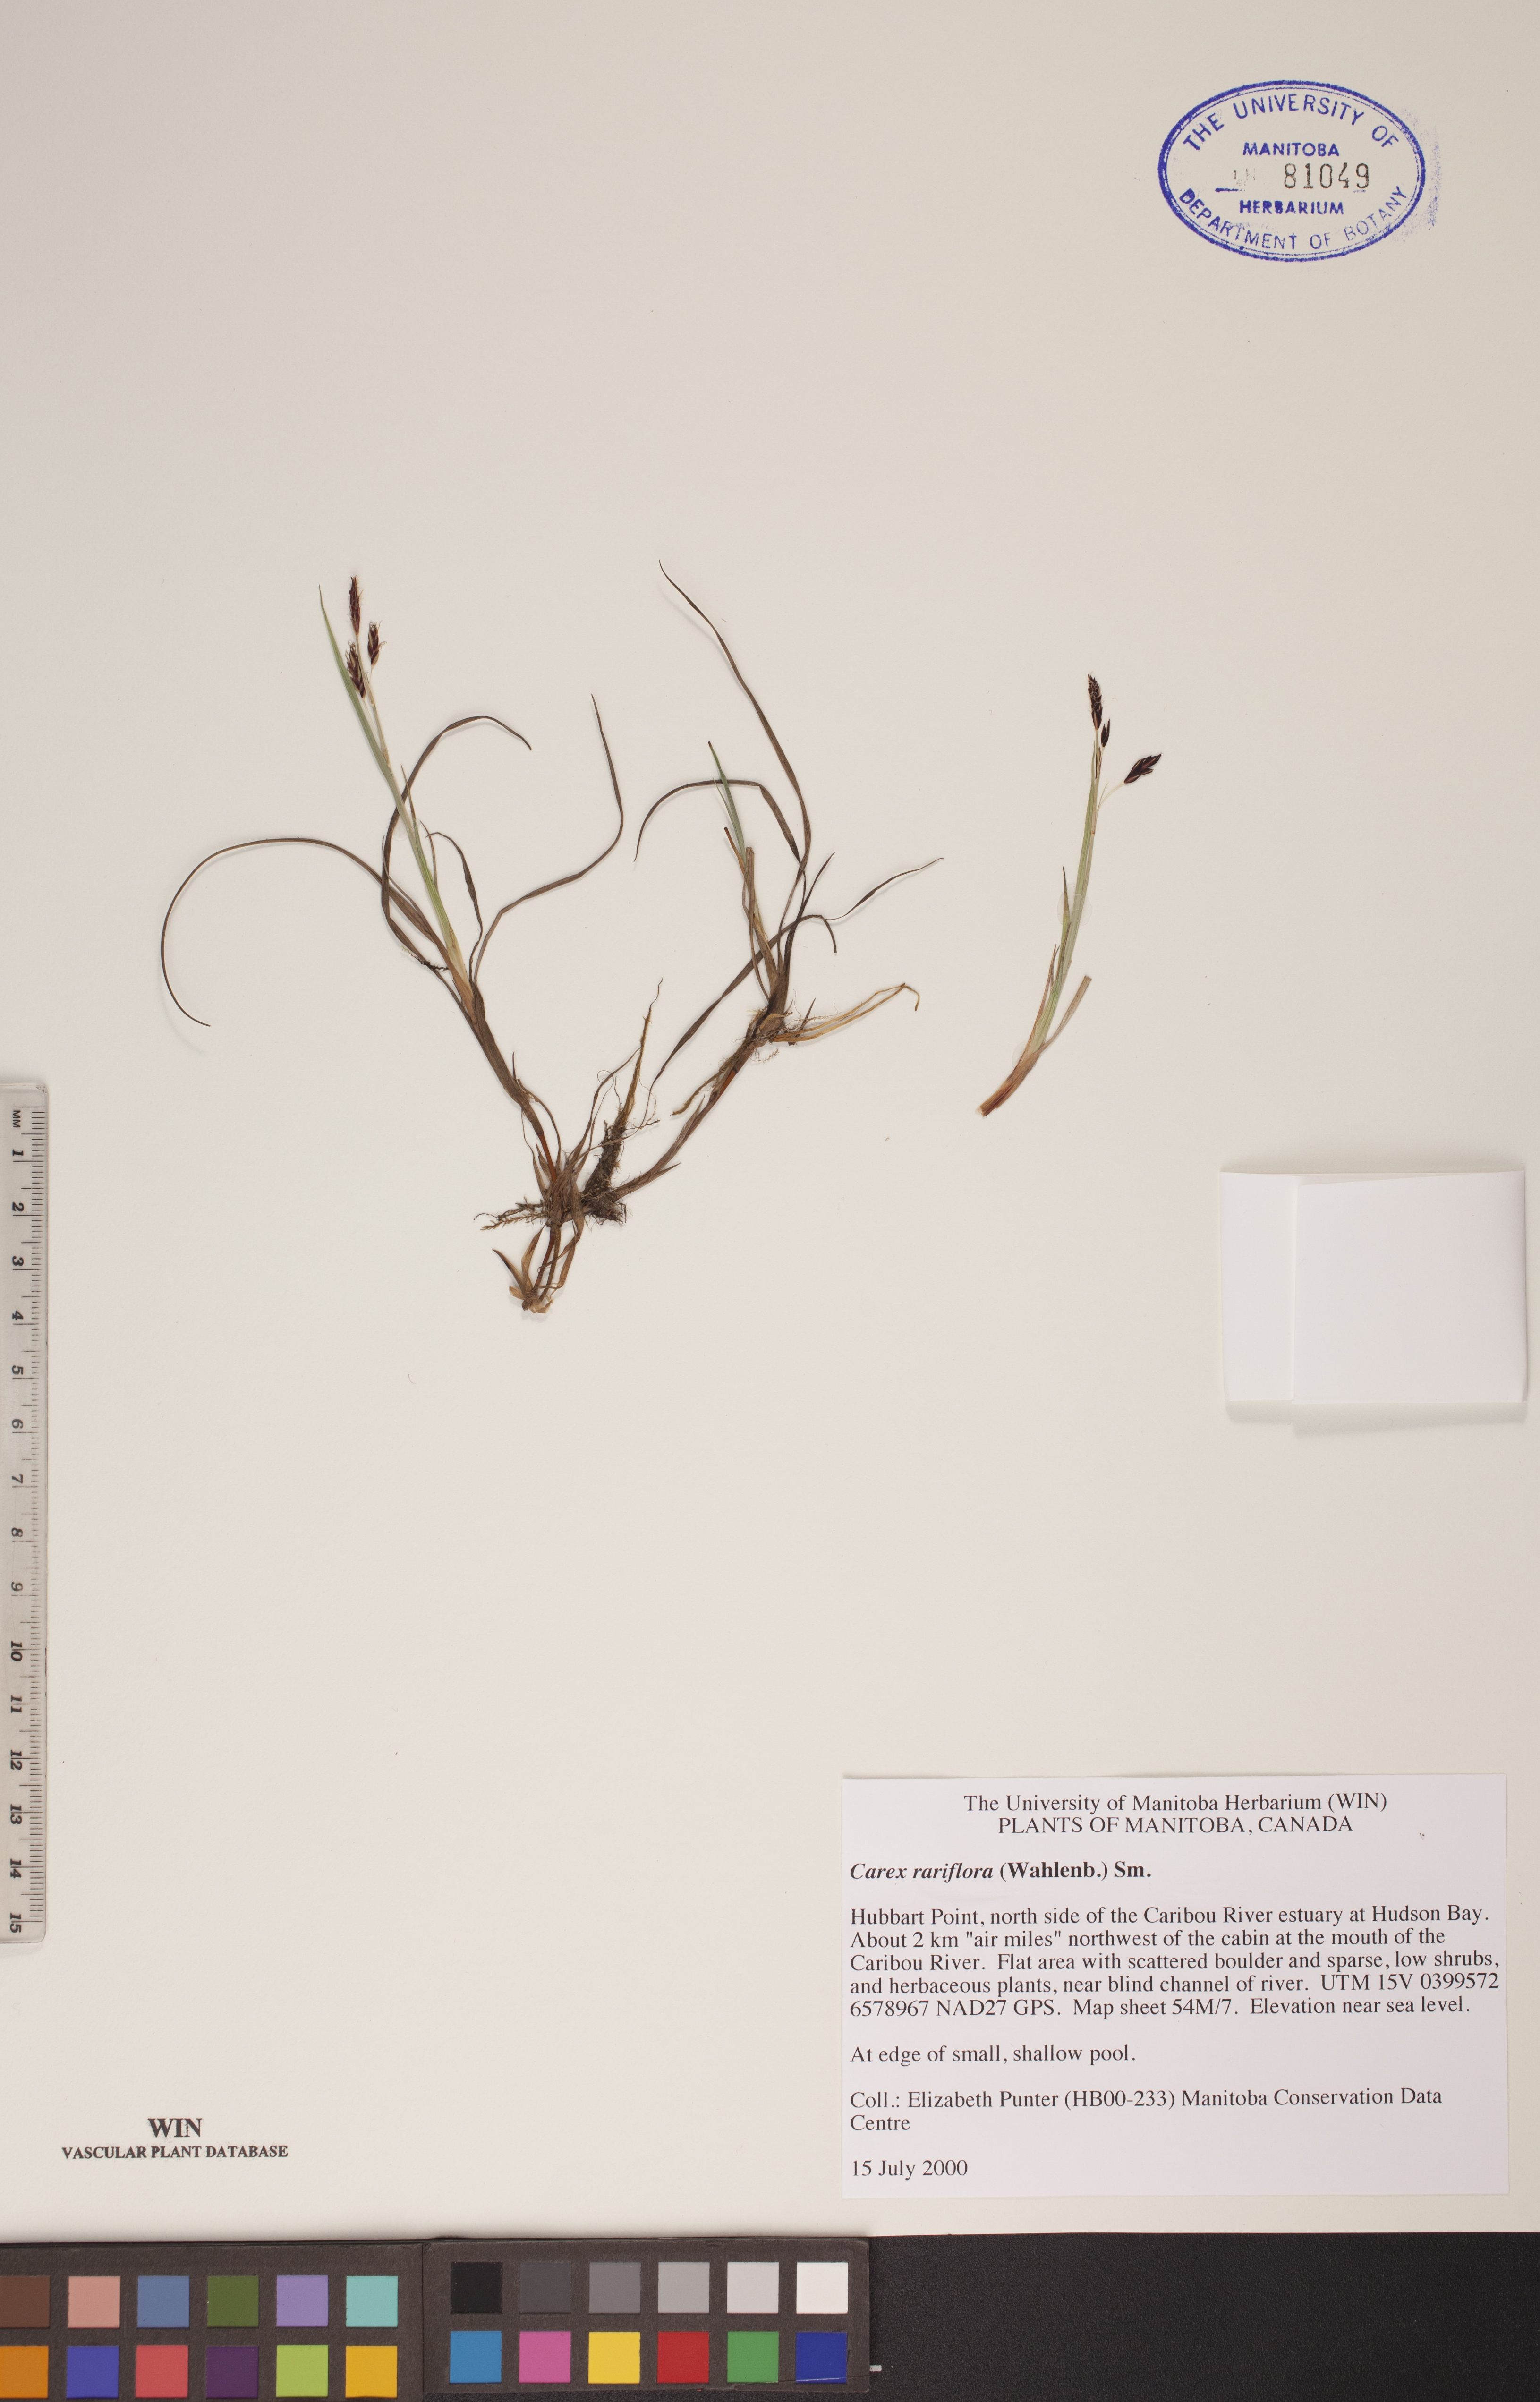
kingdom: Plantae
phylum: Tracheophyta
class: Liliopsida
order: Poales
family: Cyperaceae
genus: Carex
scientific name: Carex rariflora
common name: Loose-flowered alpine sedge
